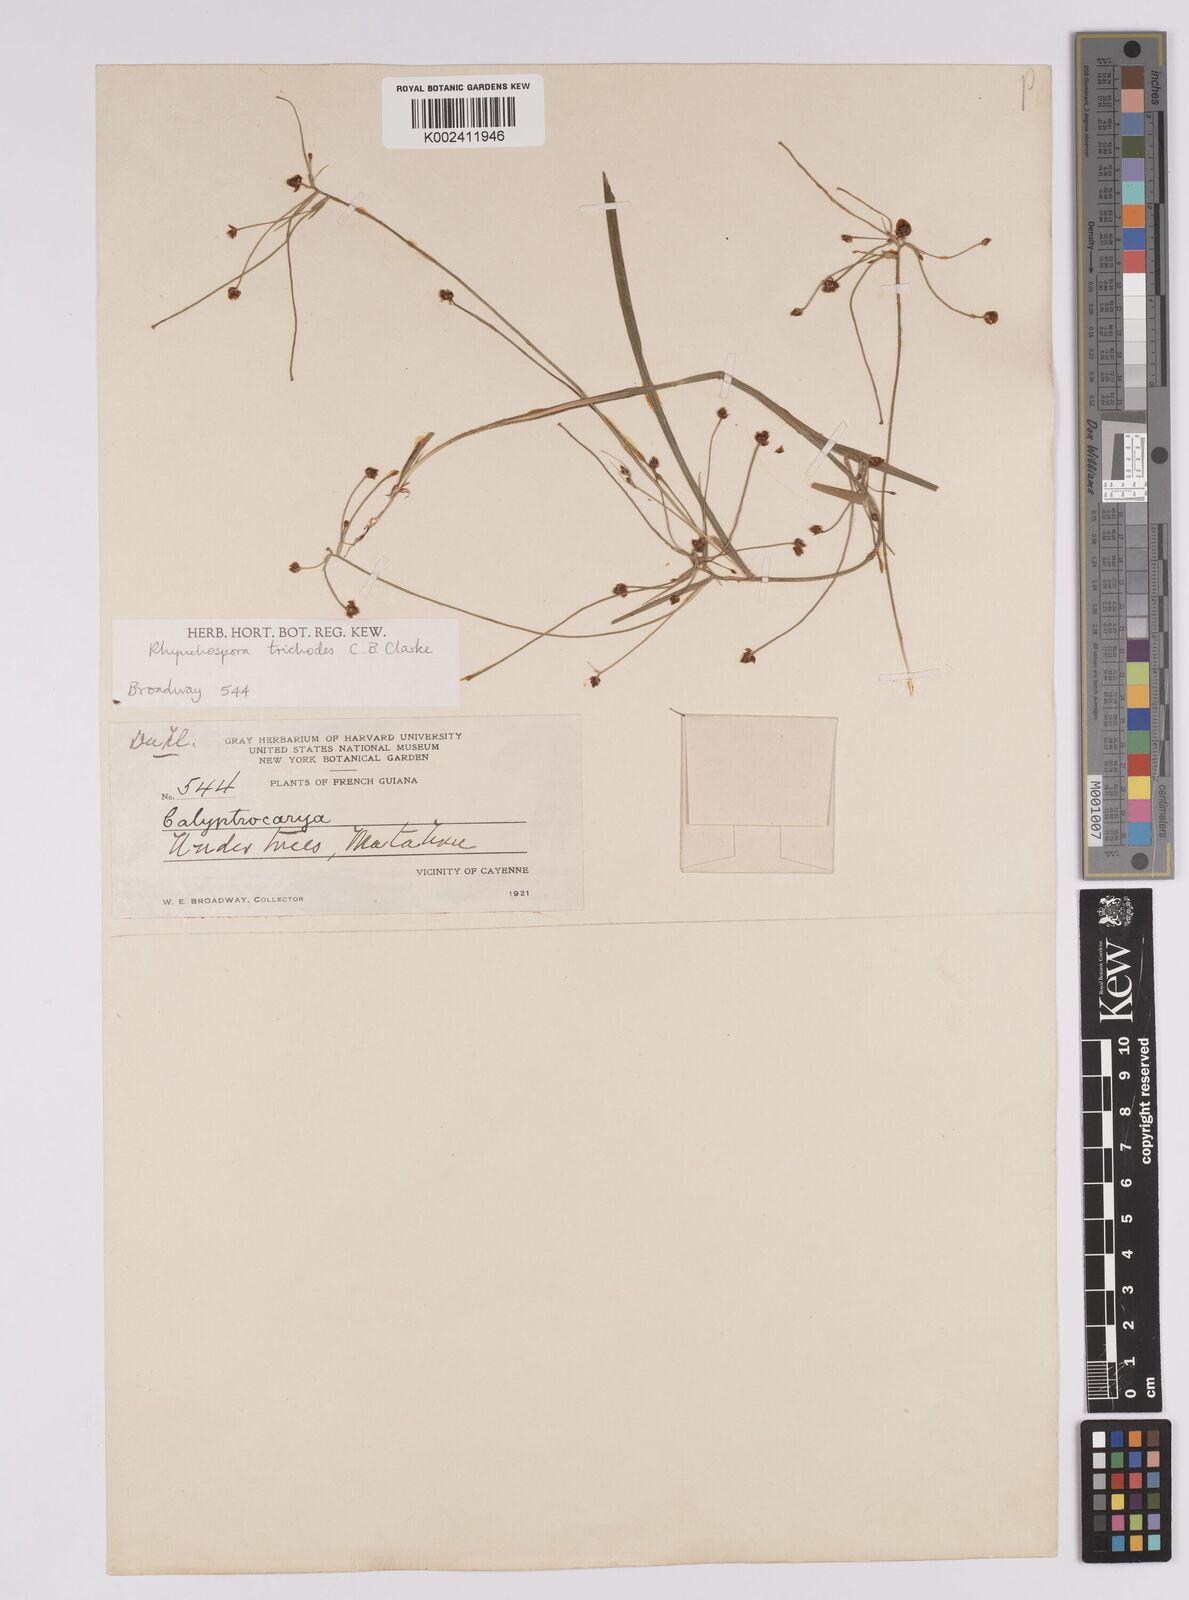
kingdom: Plantae
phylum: Tracheophyta
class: Liliopsida
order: Poales
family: Cyperaceae
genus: Rhynchospora
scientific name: Rhynchospora divaricata
